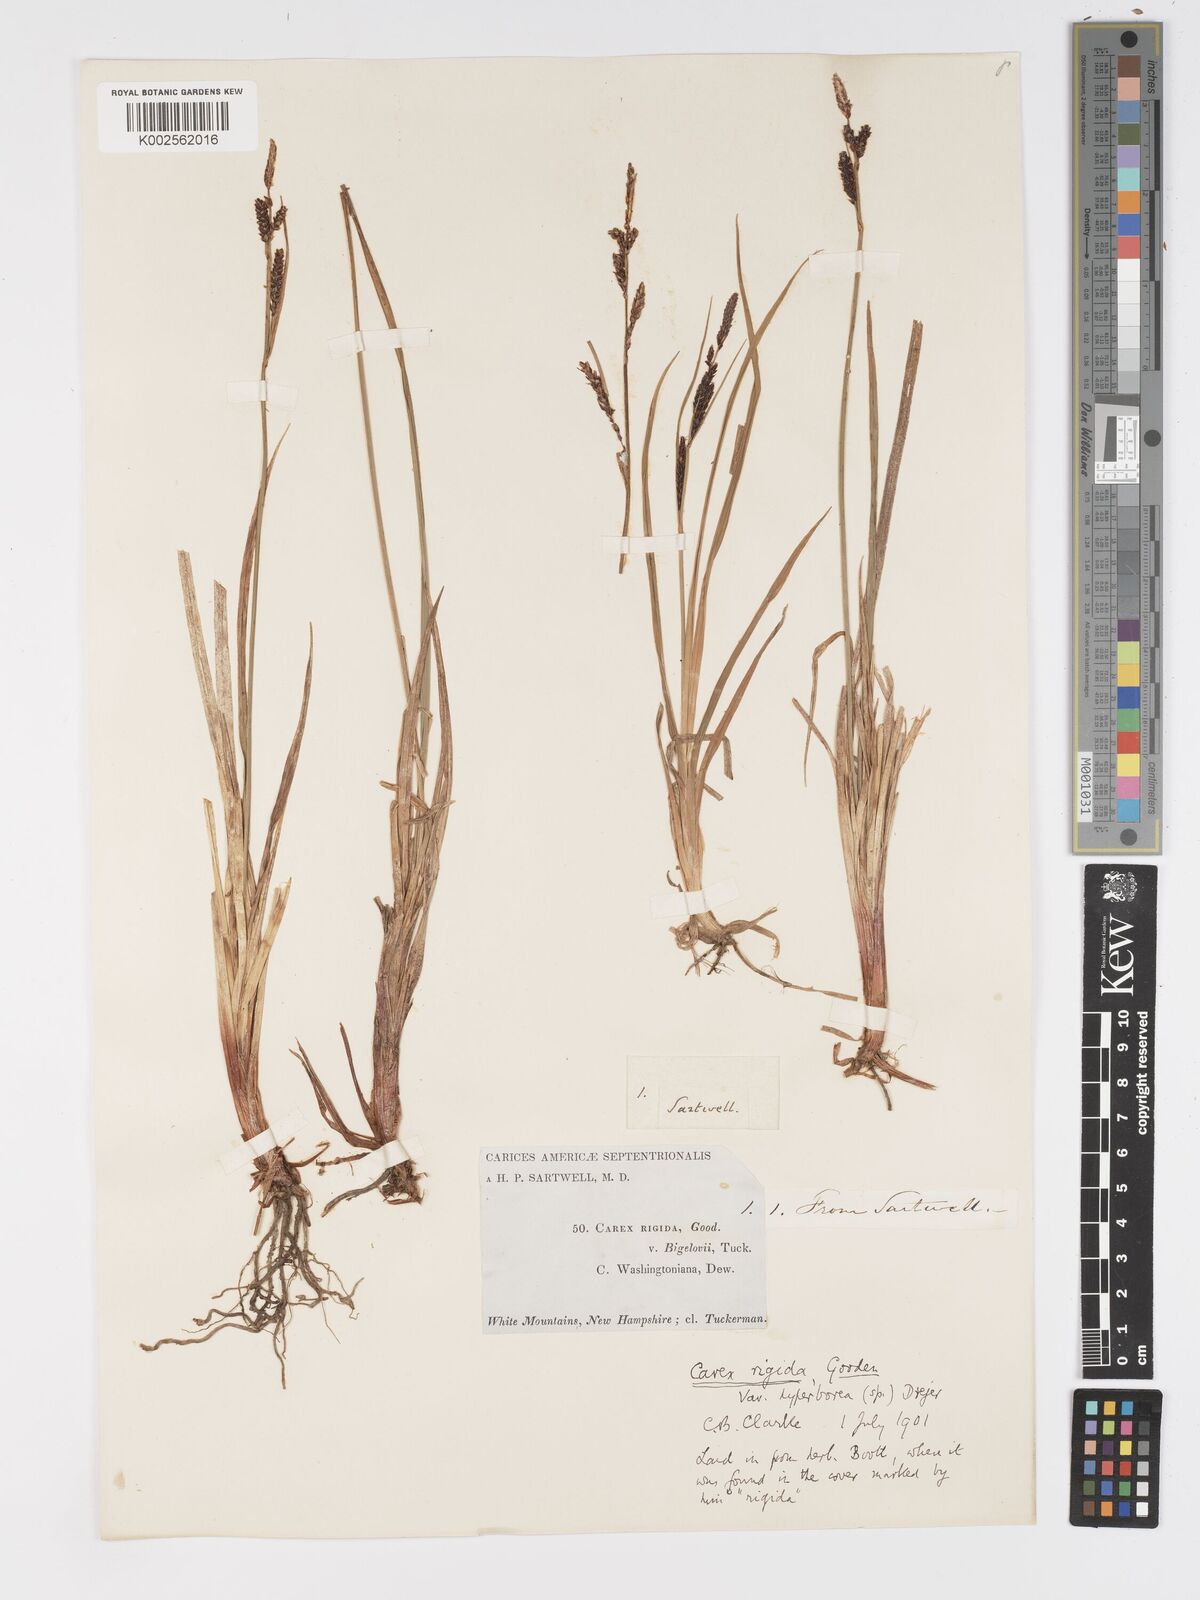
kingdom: Plantae
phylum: Tracheophyta
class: Liliopsida
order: Poales
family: Cyperaceae
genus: Carex
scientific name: Carex bigelowii
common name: Stiff sedge
